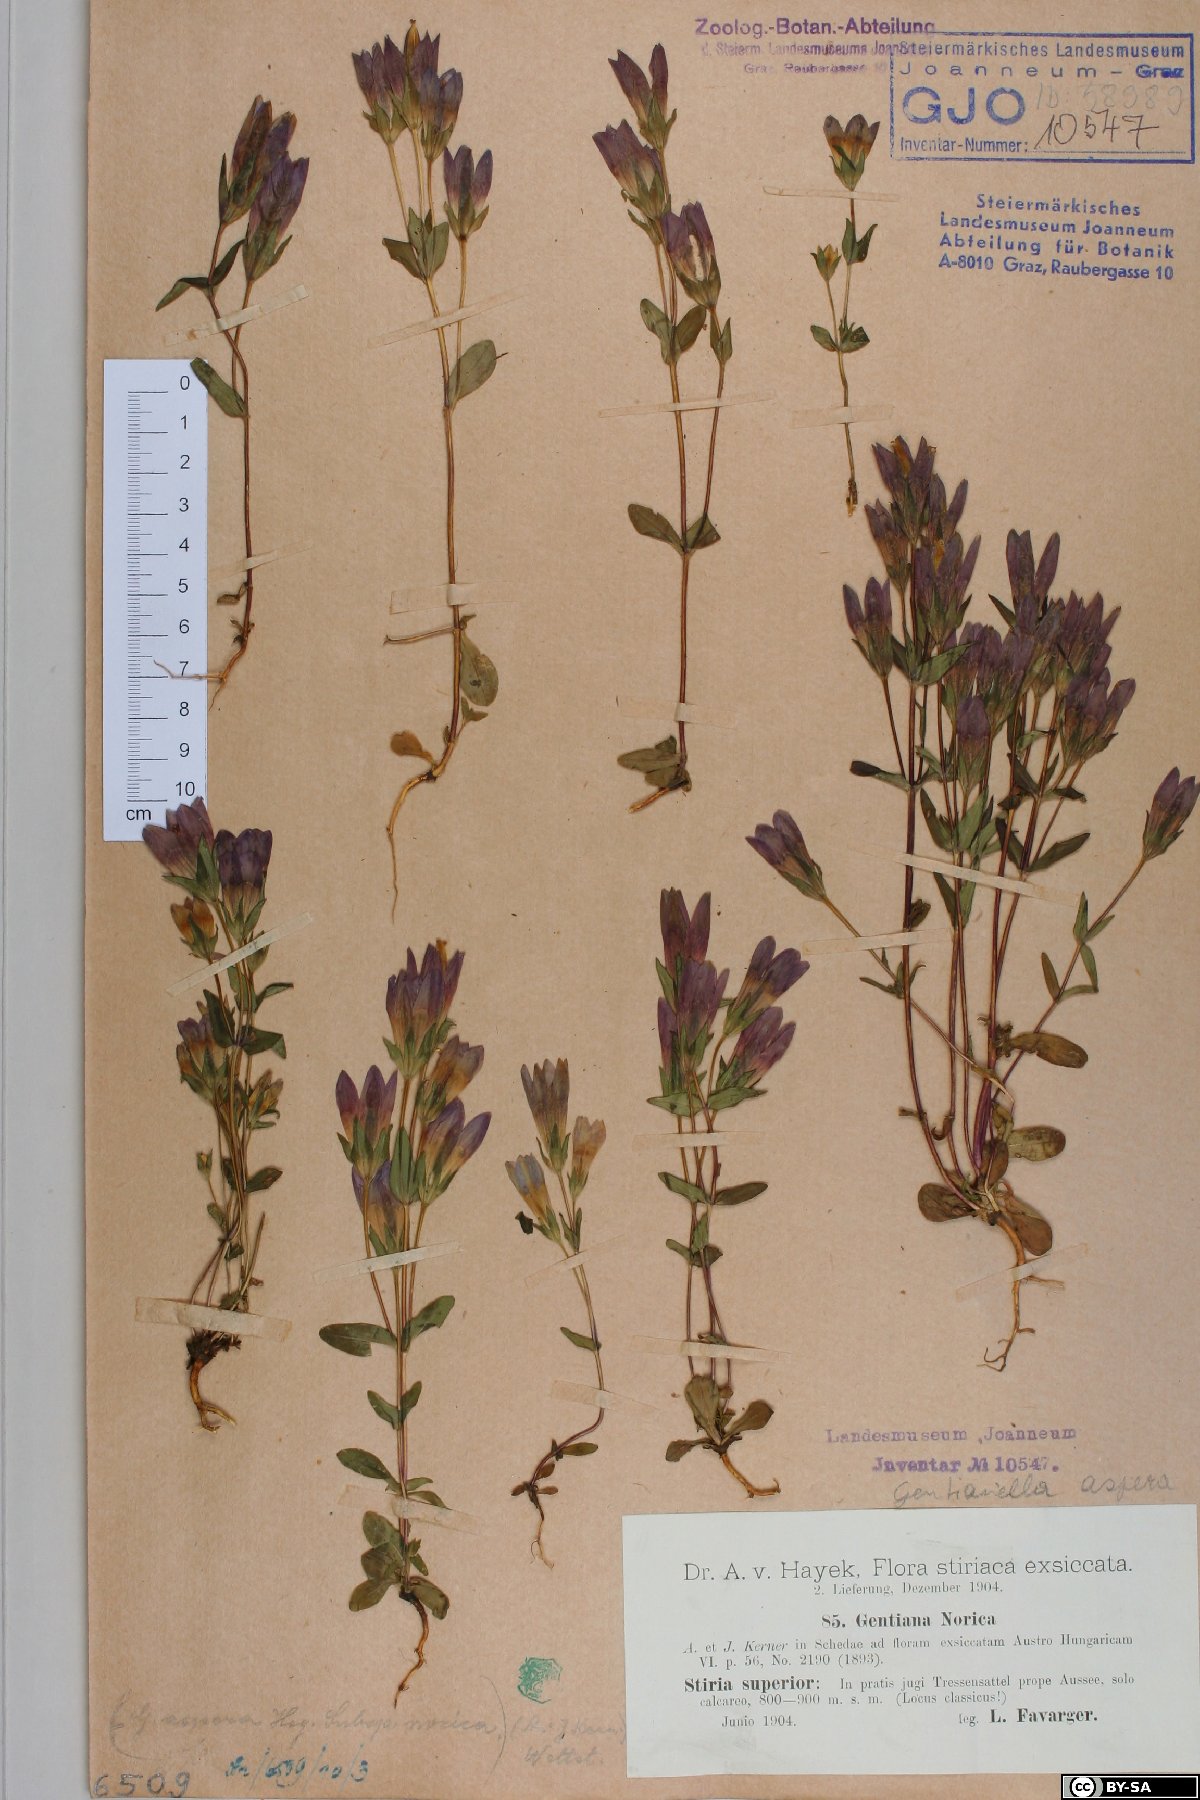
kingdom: Plantae
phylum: Tracheophyta
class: Magnoliopsida
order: Gentianales
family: Gentianaceae
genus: Gentianella
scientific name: Gentianella obtusifolia
